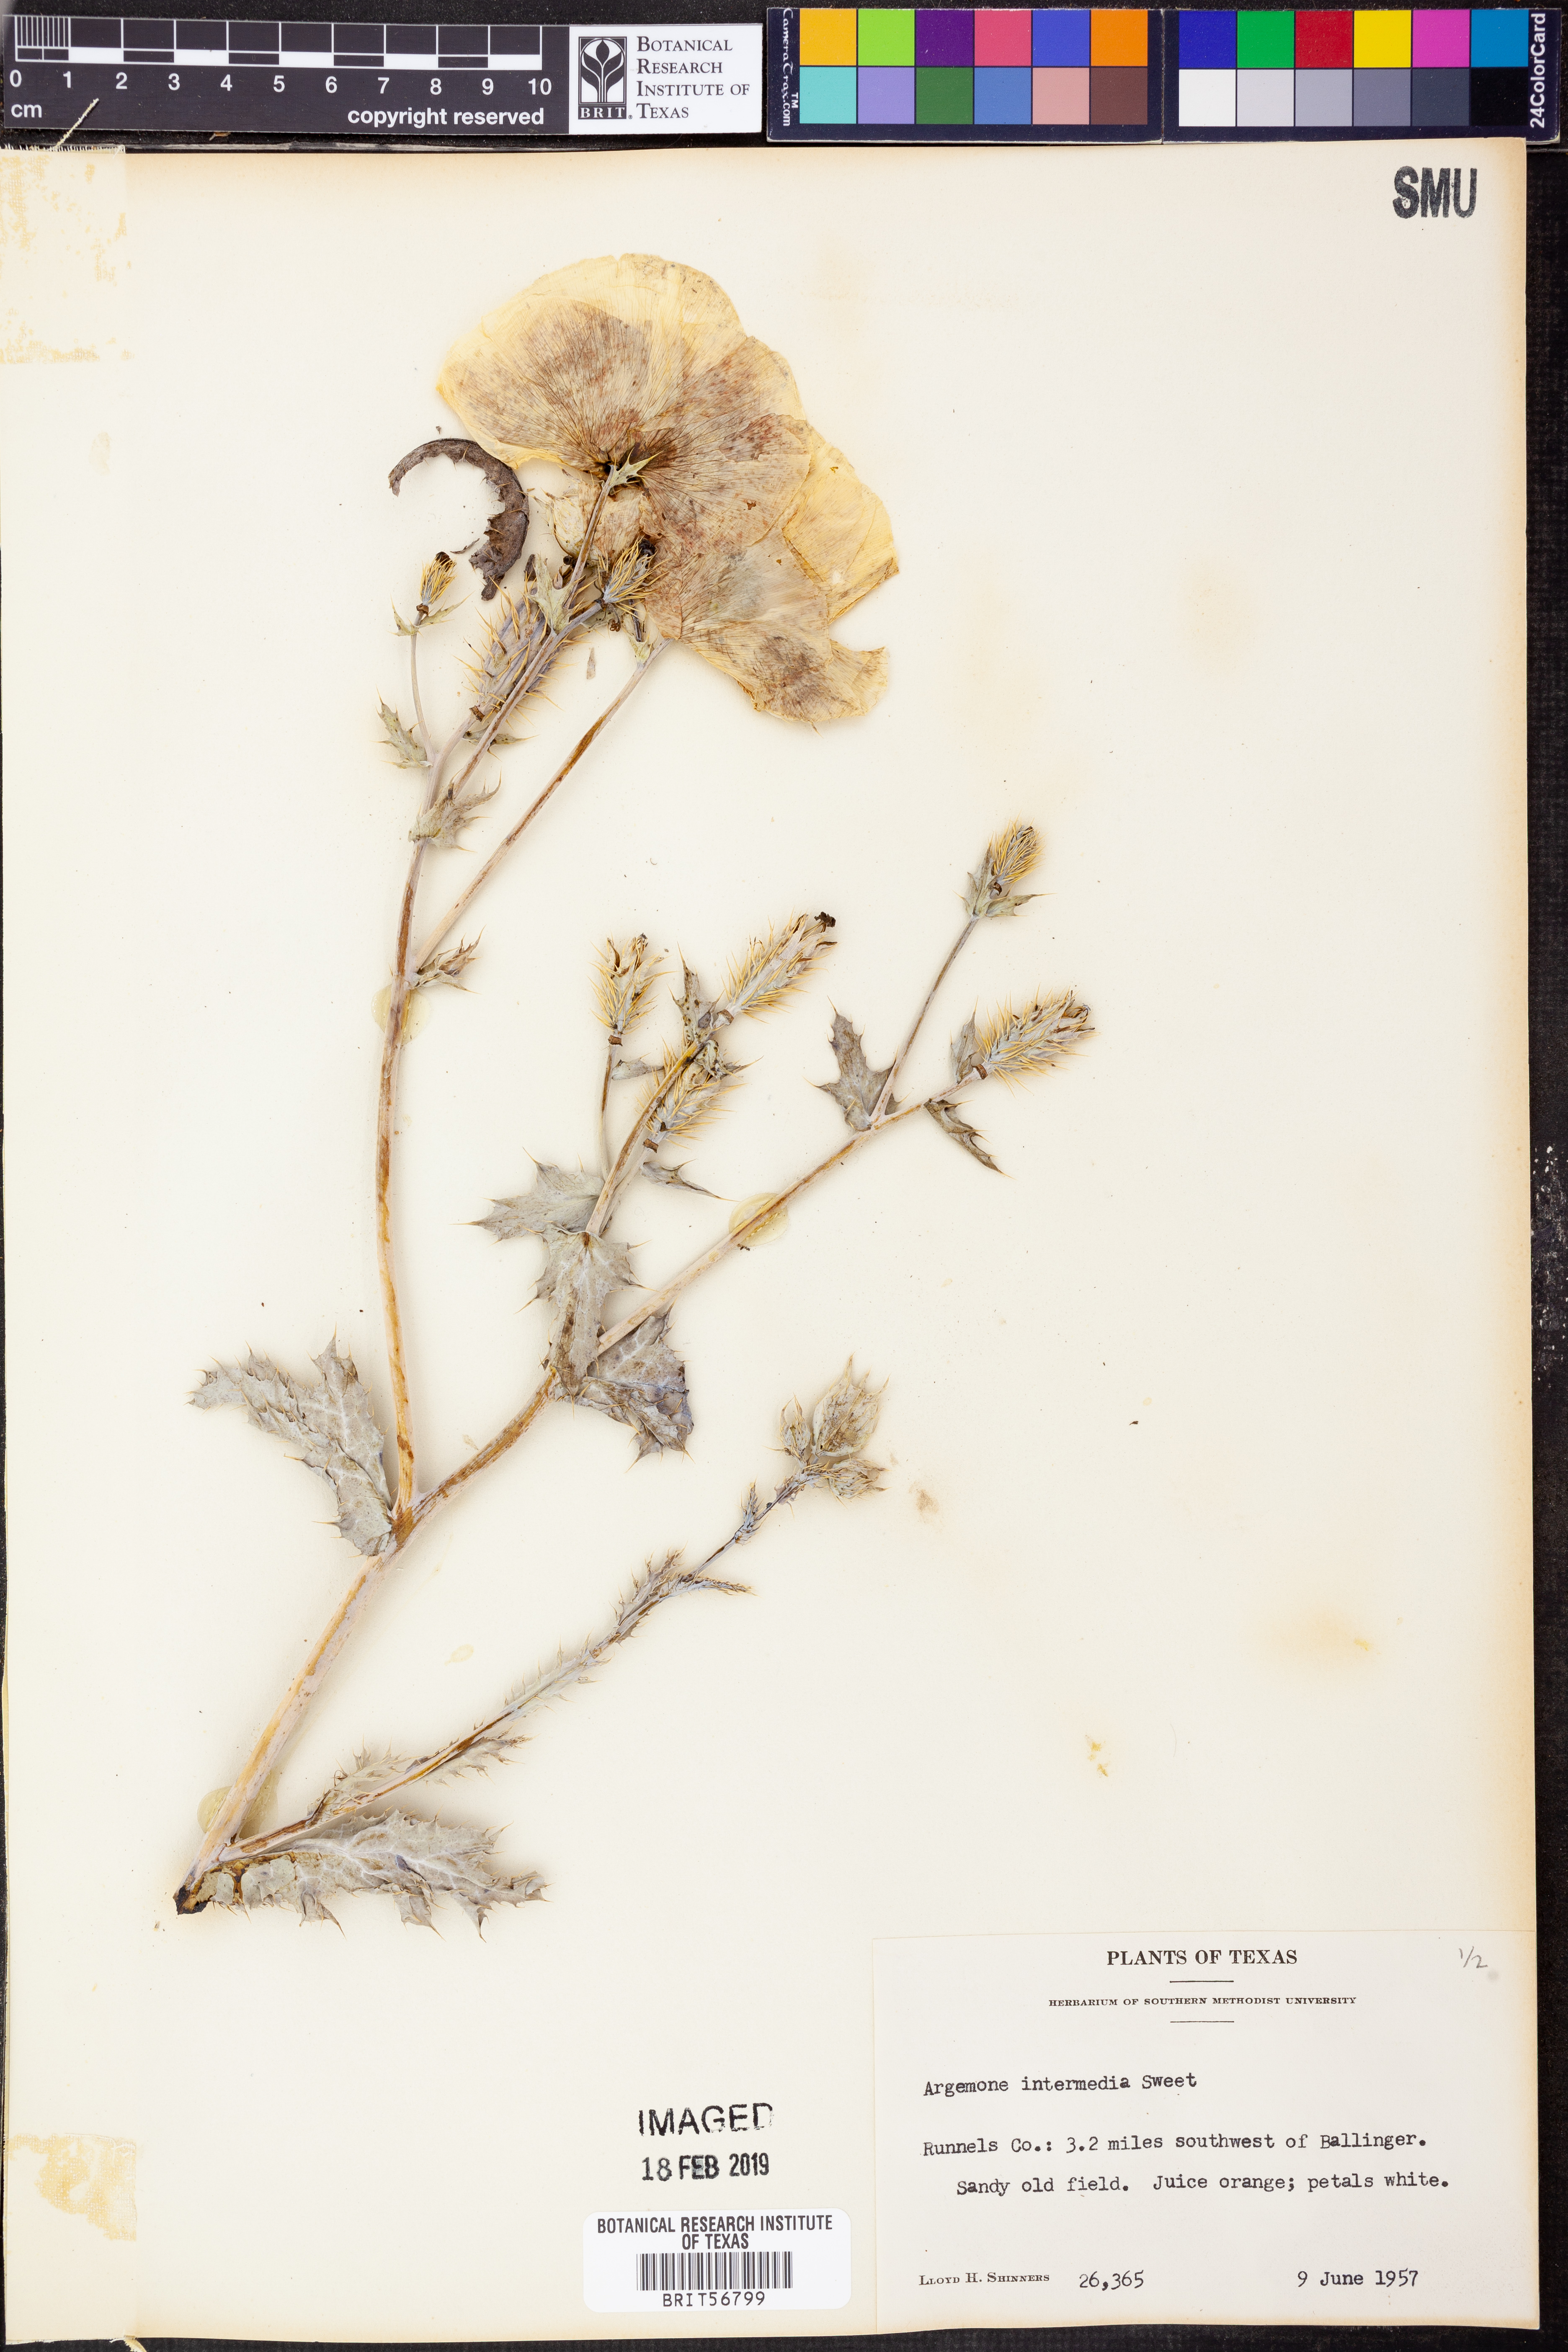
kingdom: Plantae
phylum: Tracheophyta
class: Magnoliopsida
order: Ranunculales
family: Papaveraceae
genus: Argemone
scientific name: Argemone intermedia
